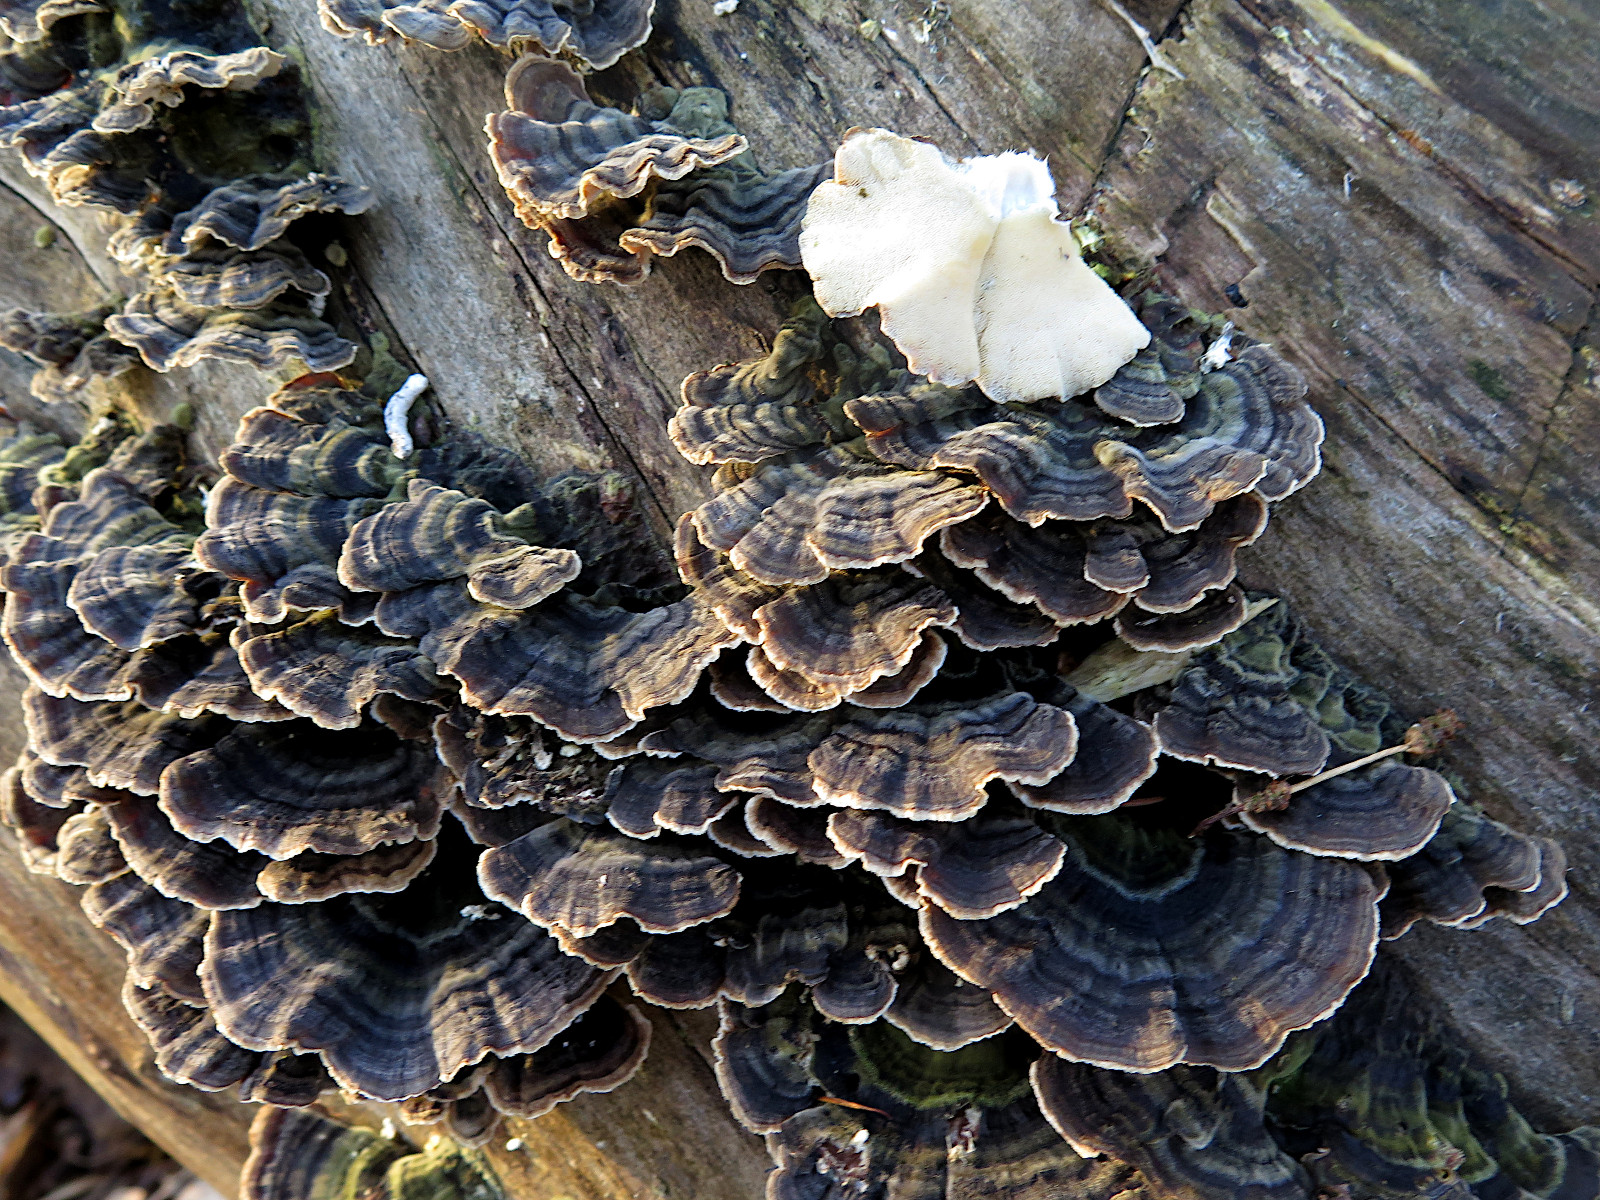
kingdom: Fungi
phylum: Basidiomycota
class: Agaricomycetes
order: Polyporales
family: Polyporaceae
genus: Trametes
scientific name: Trametes versicolor
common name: broget læderporesvamp
